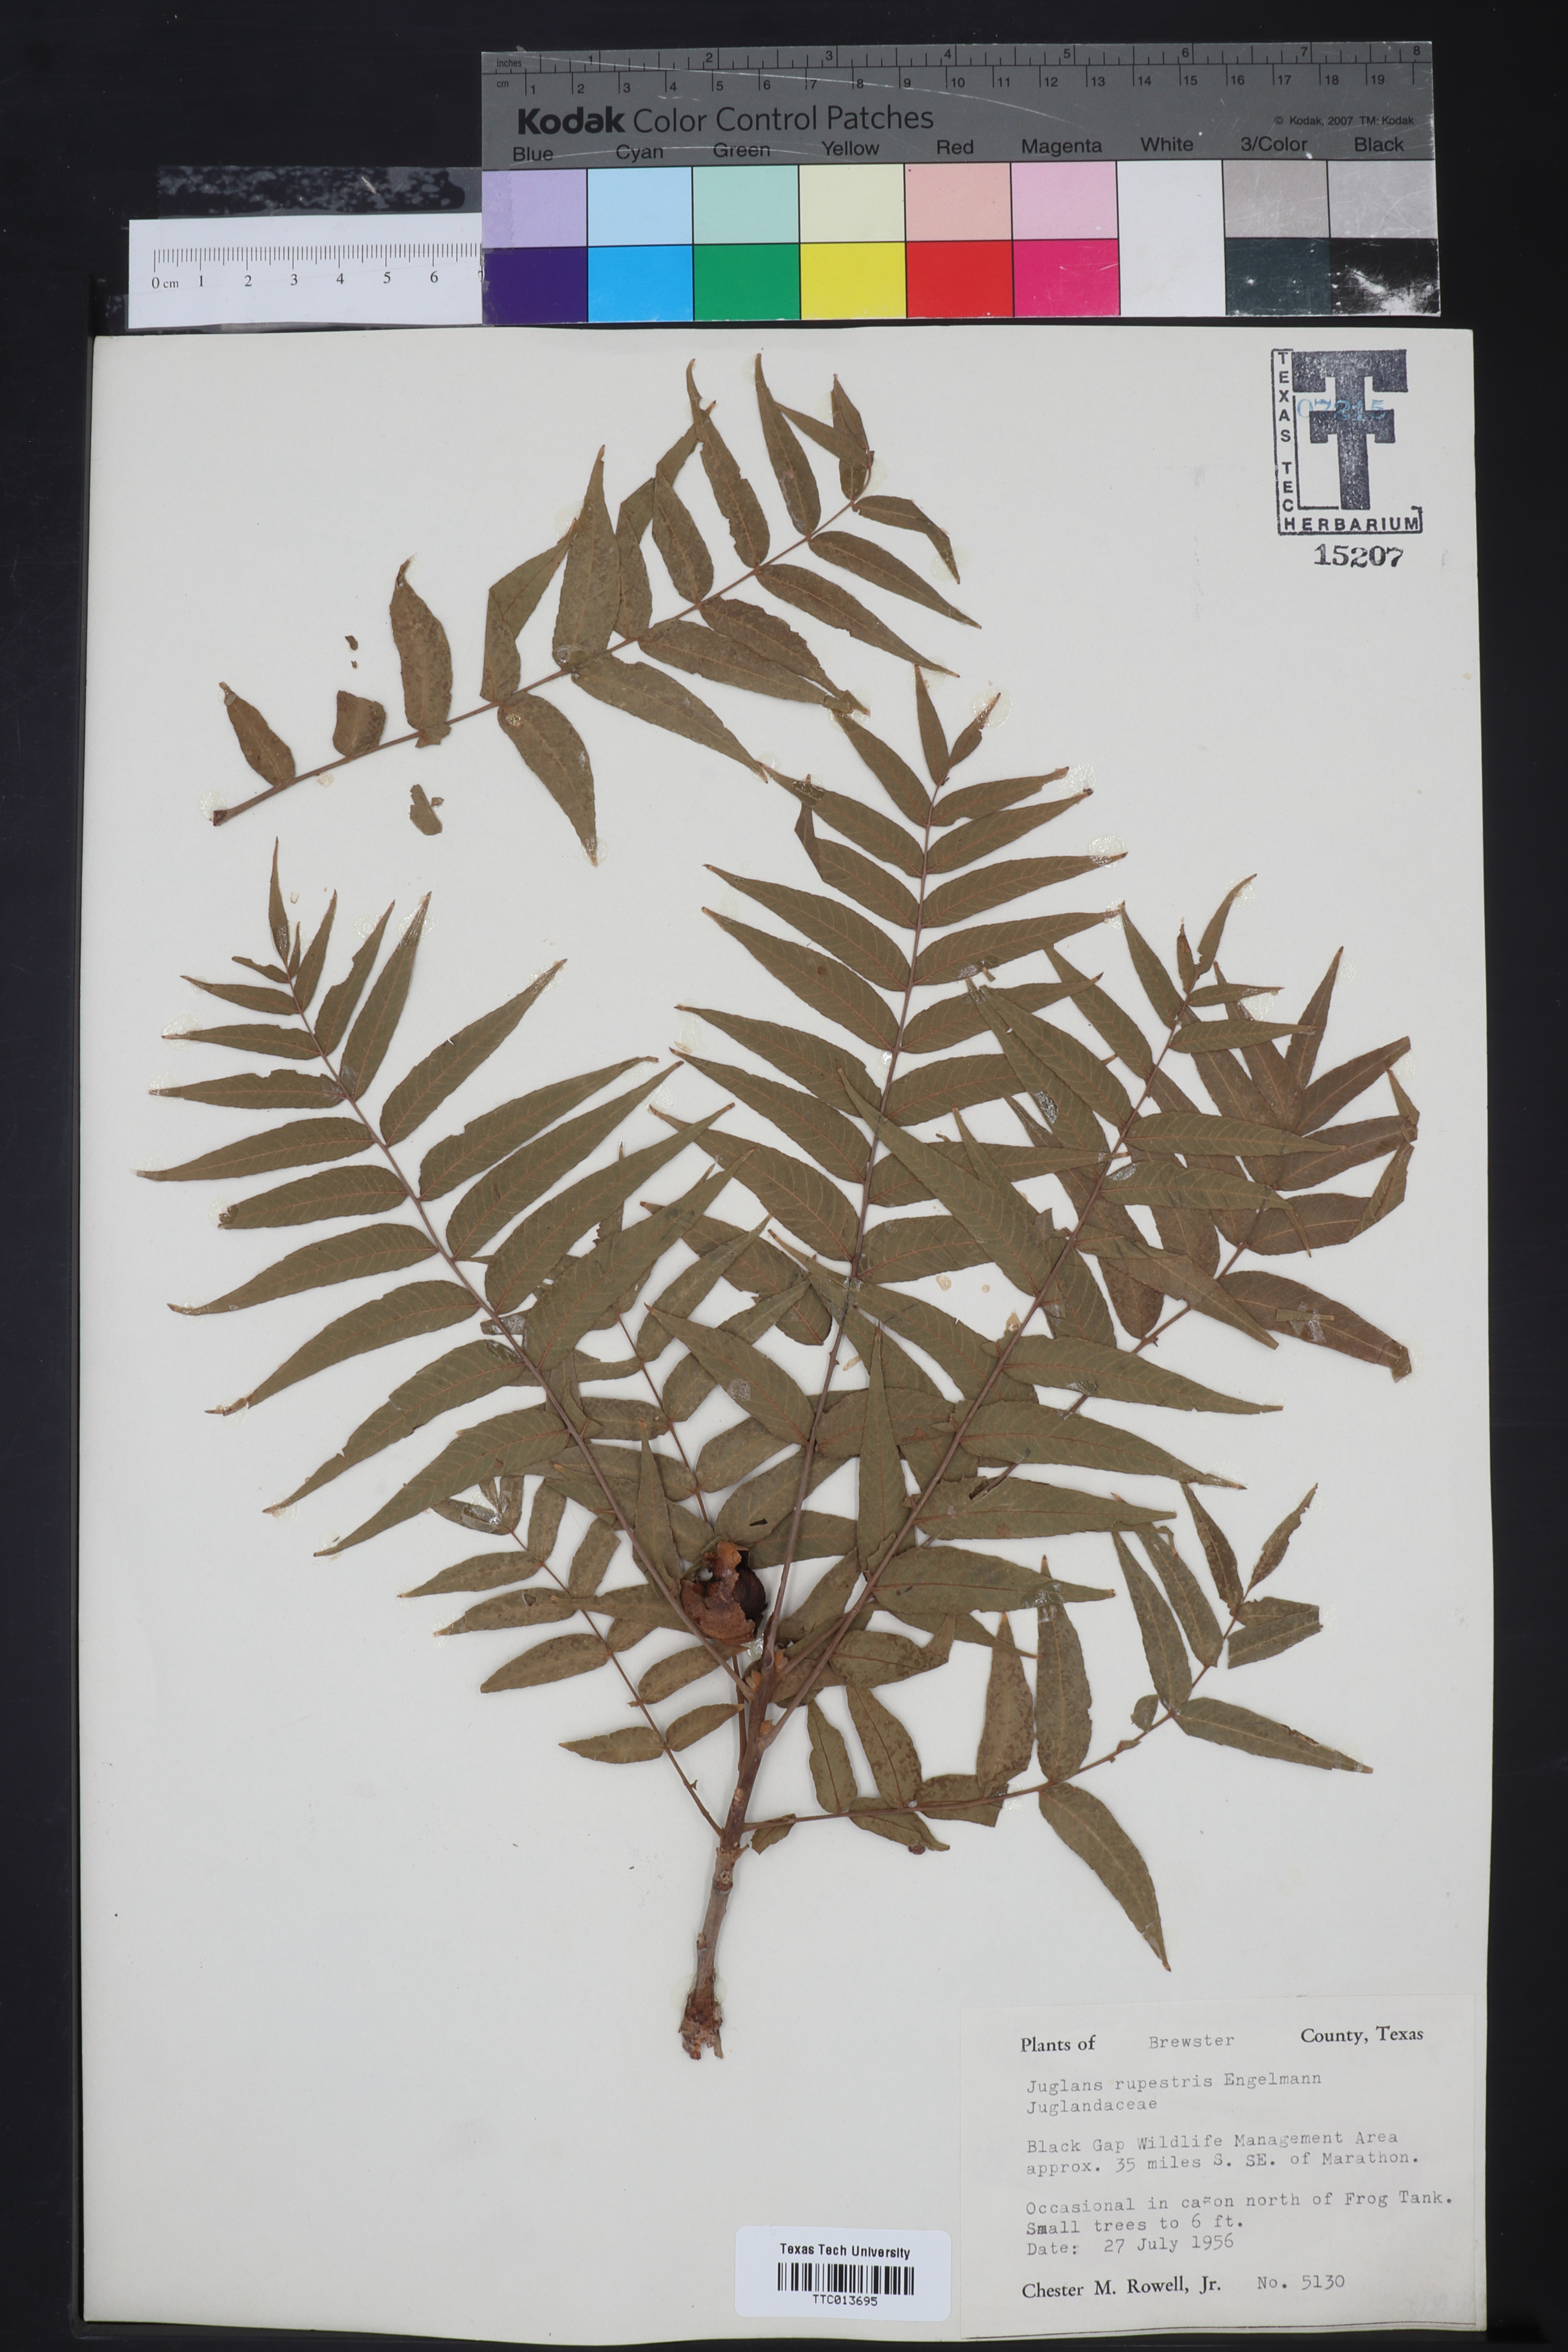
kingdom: Plantae
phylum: Tracheophyta
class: Magnoliopsida
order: Fagales
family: Juglandaceae
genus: Juglans
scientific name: Juglans microcarpa
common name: Texas walnut
